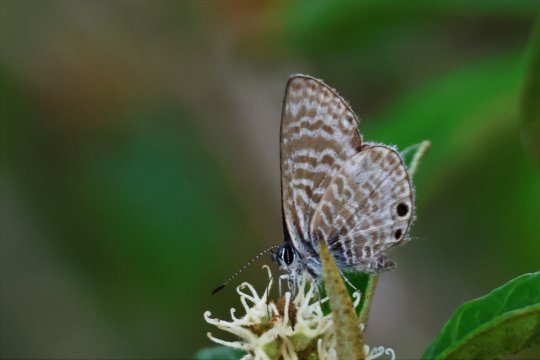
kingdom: Animalia
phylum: Arthropoda
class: Insecta
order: Lepidoptera
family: Lycaenidae
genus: Leptotes
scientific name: Leptotes marina
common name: Marine Blue
